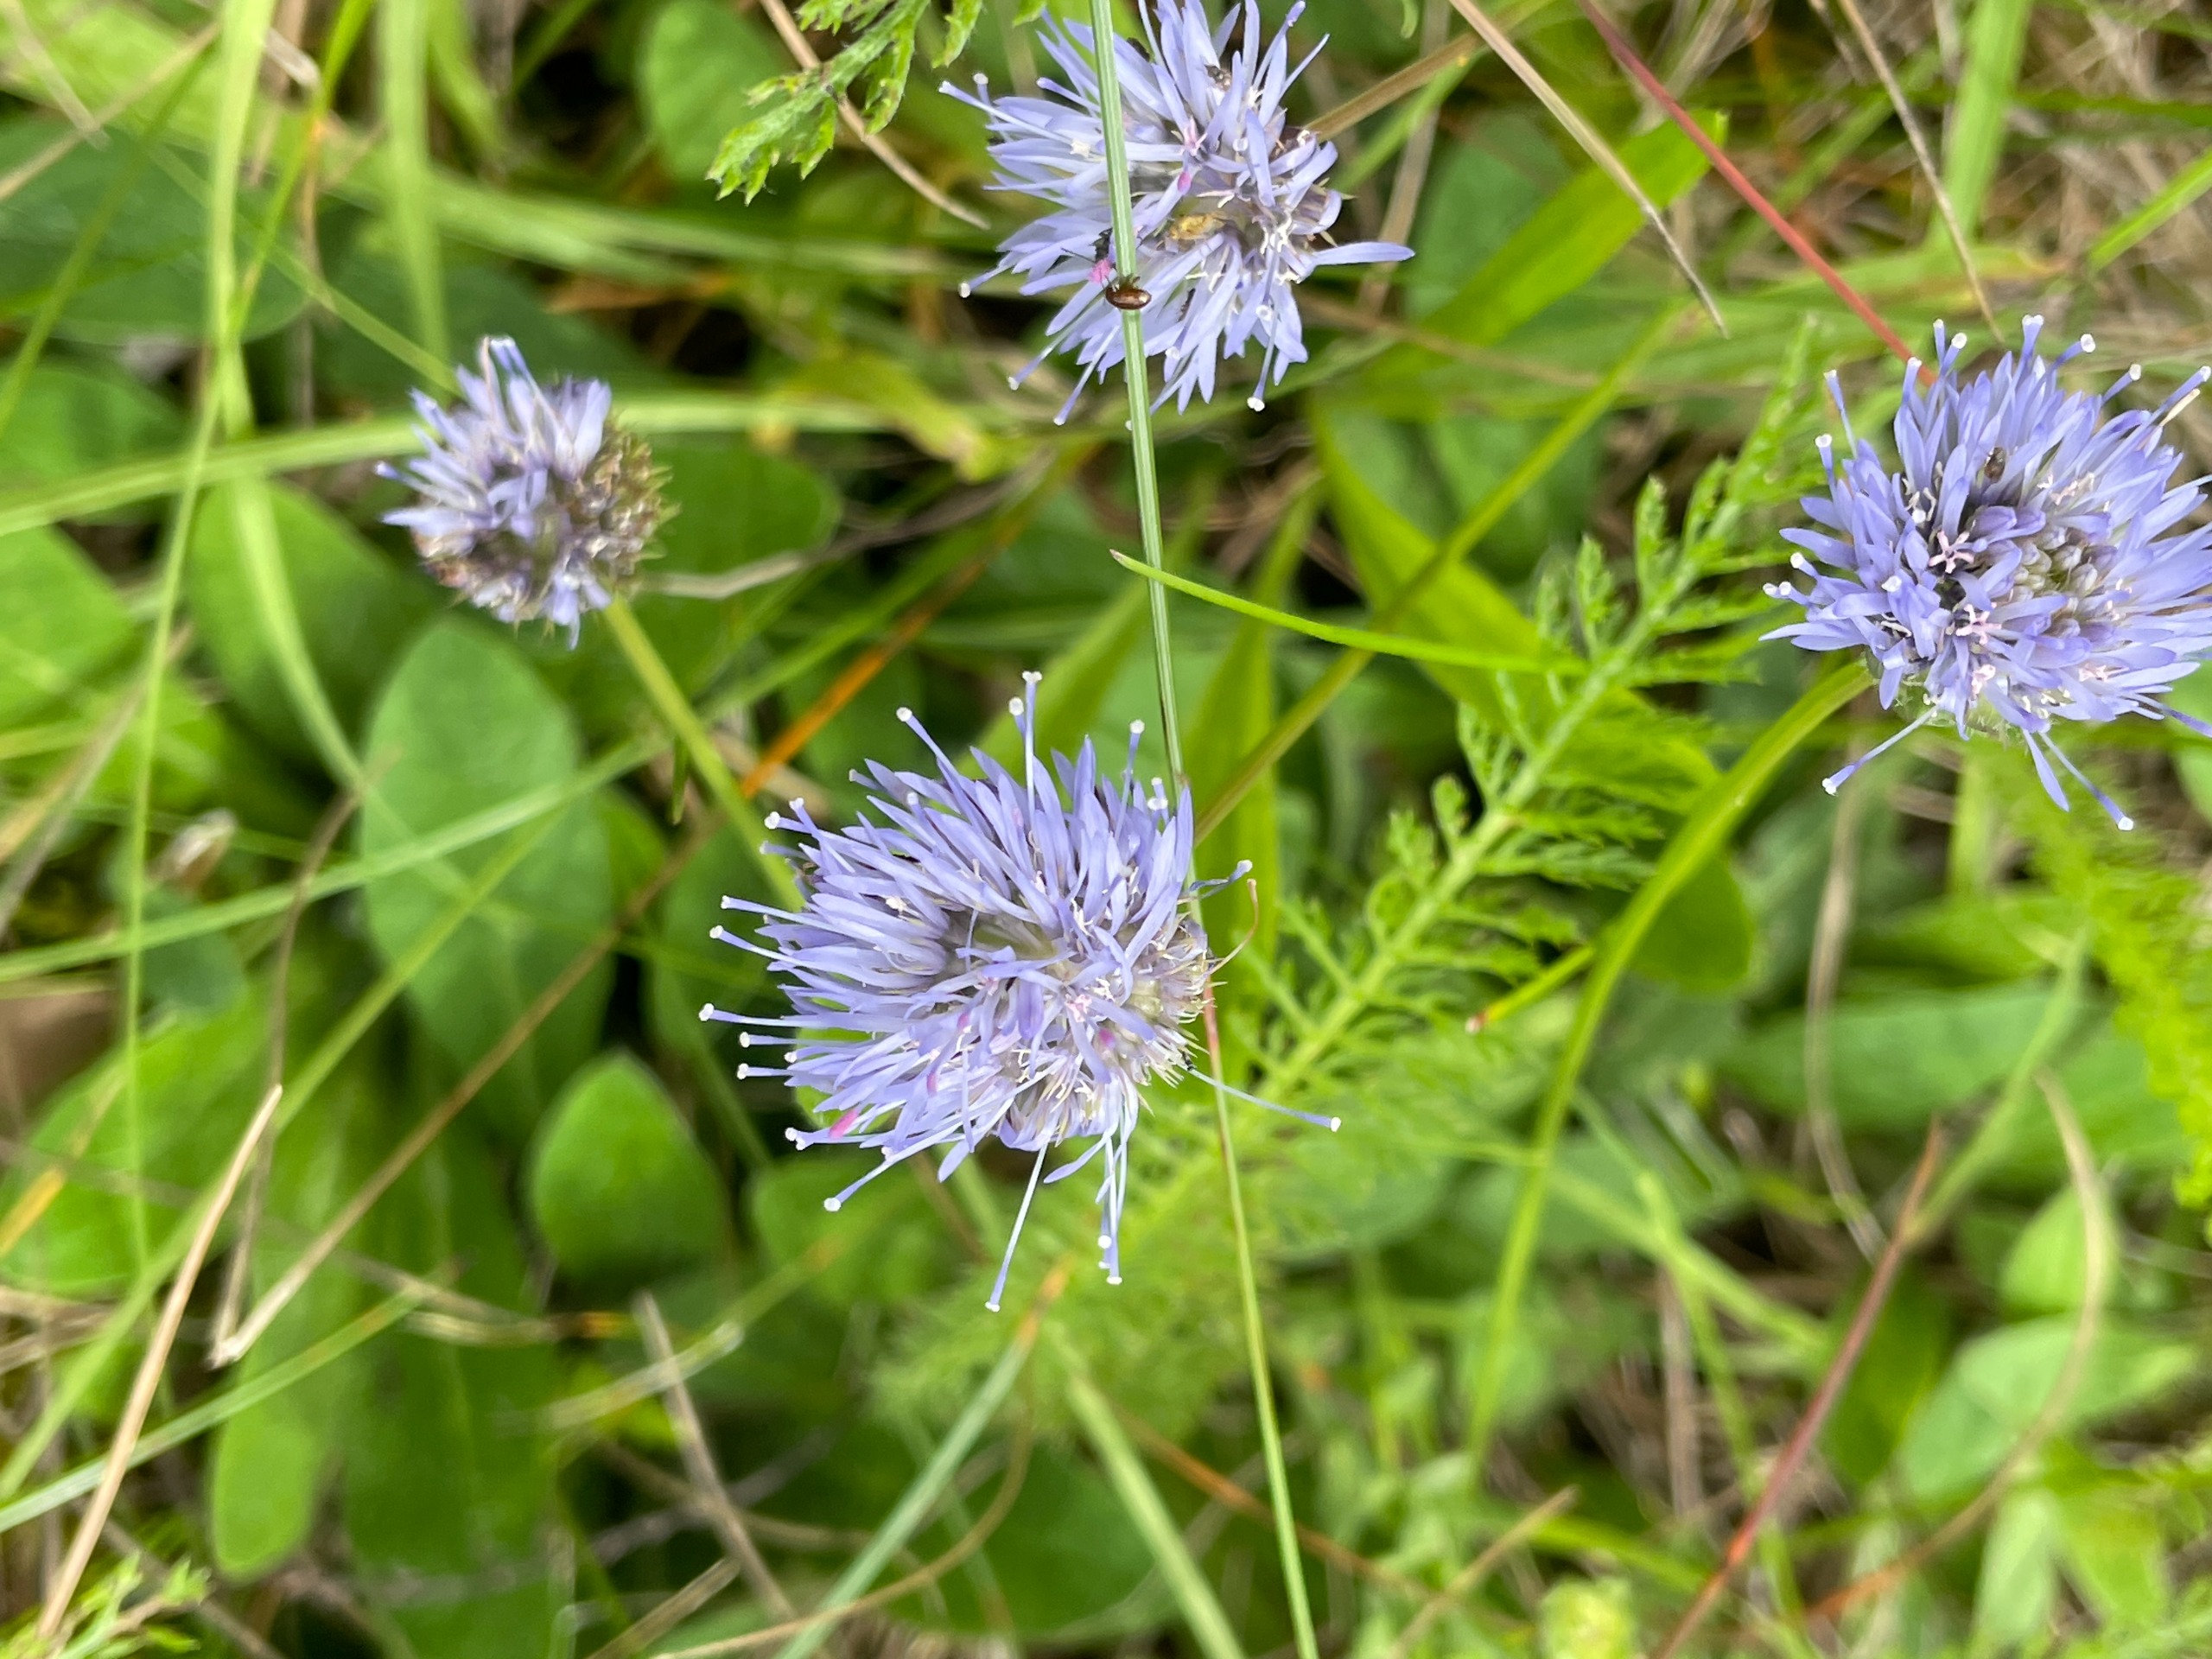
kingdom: Plantae
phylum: Tracheophyta
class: Magnoliopsida
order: Asterales
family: Campanulaceae
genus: Jasione
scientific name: Jasione montana
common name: Blåmunke
